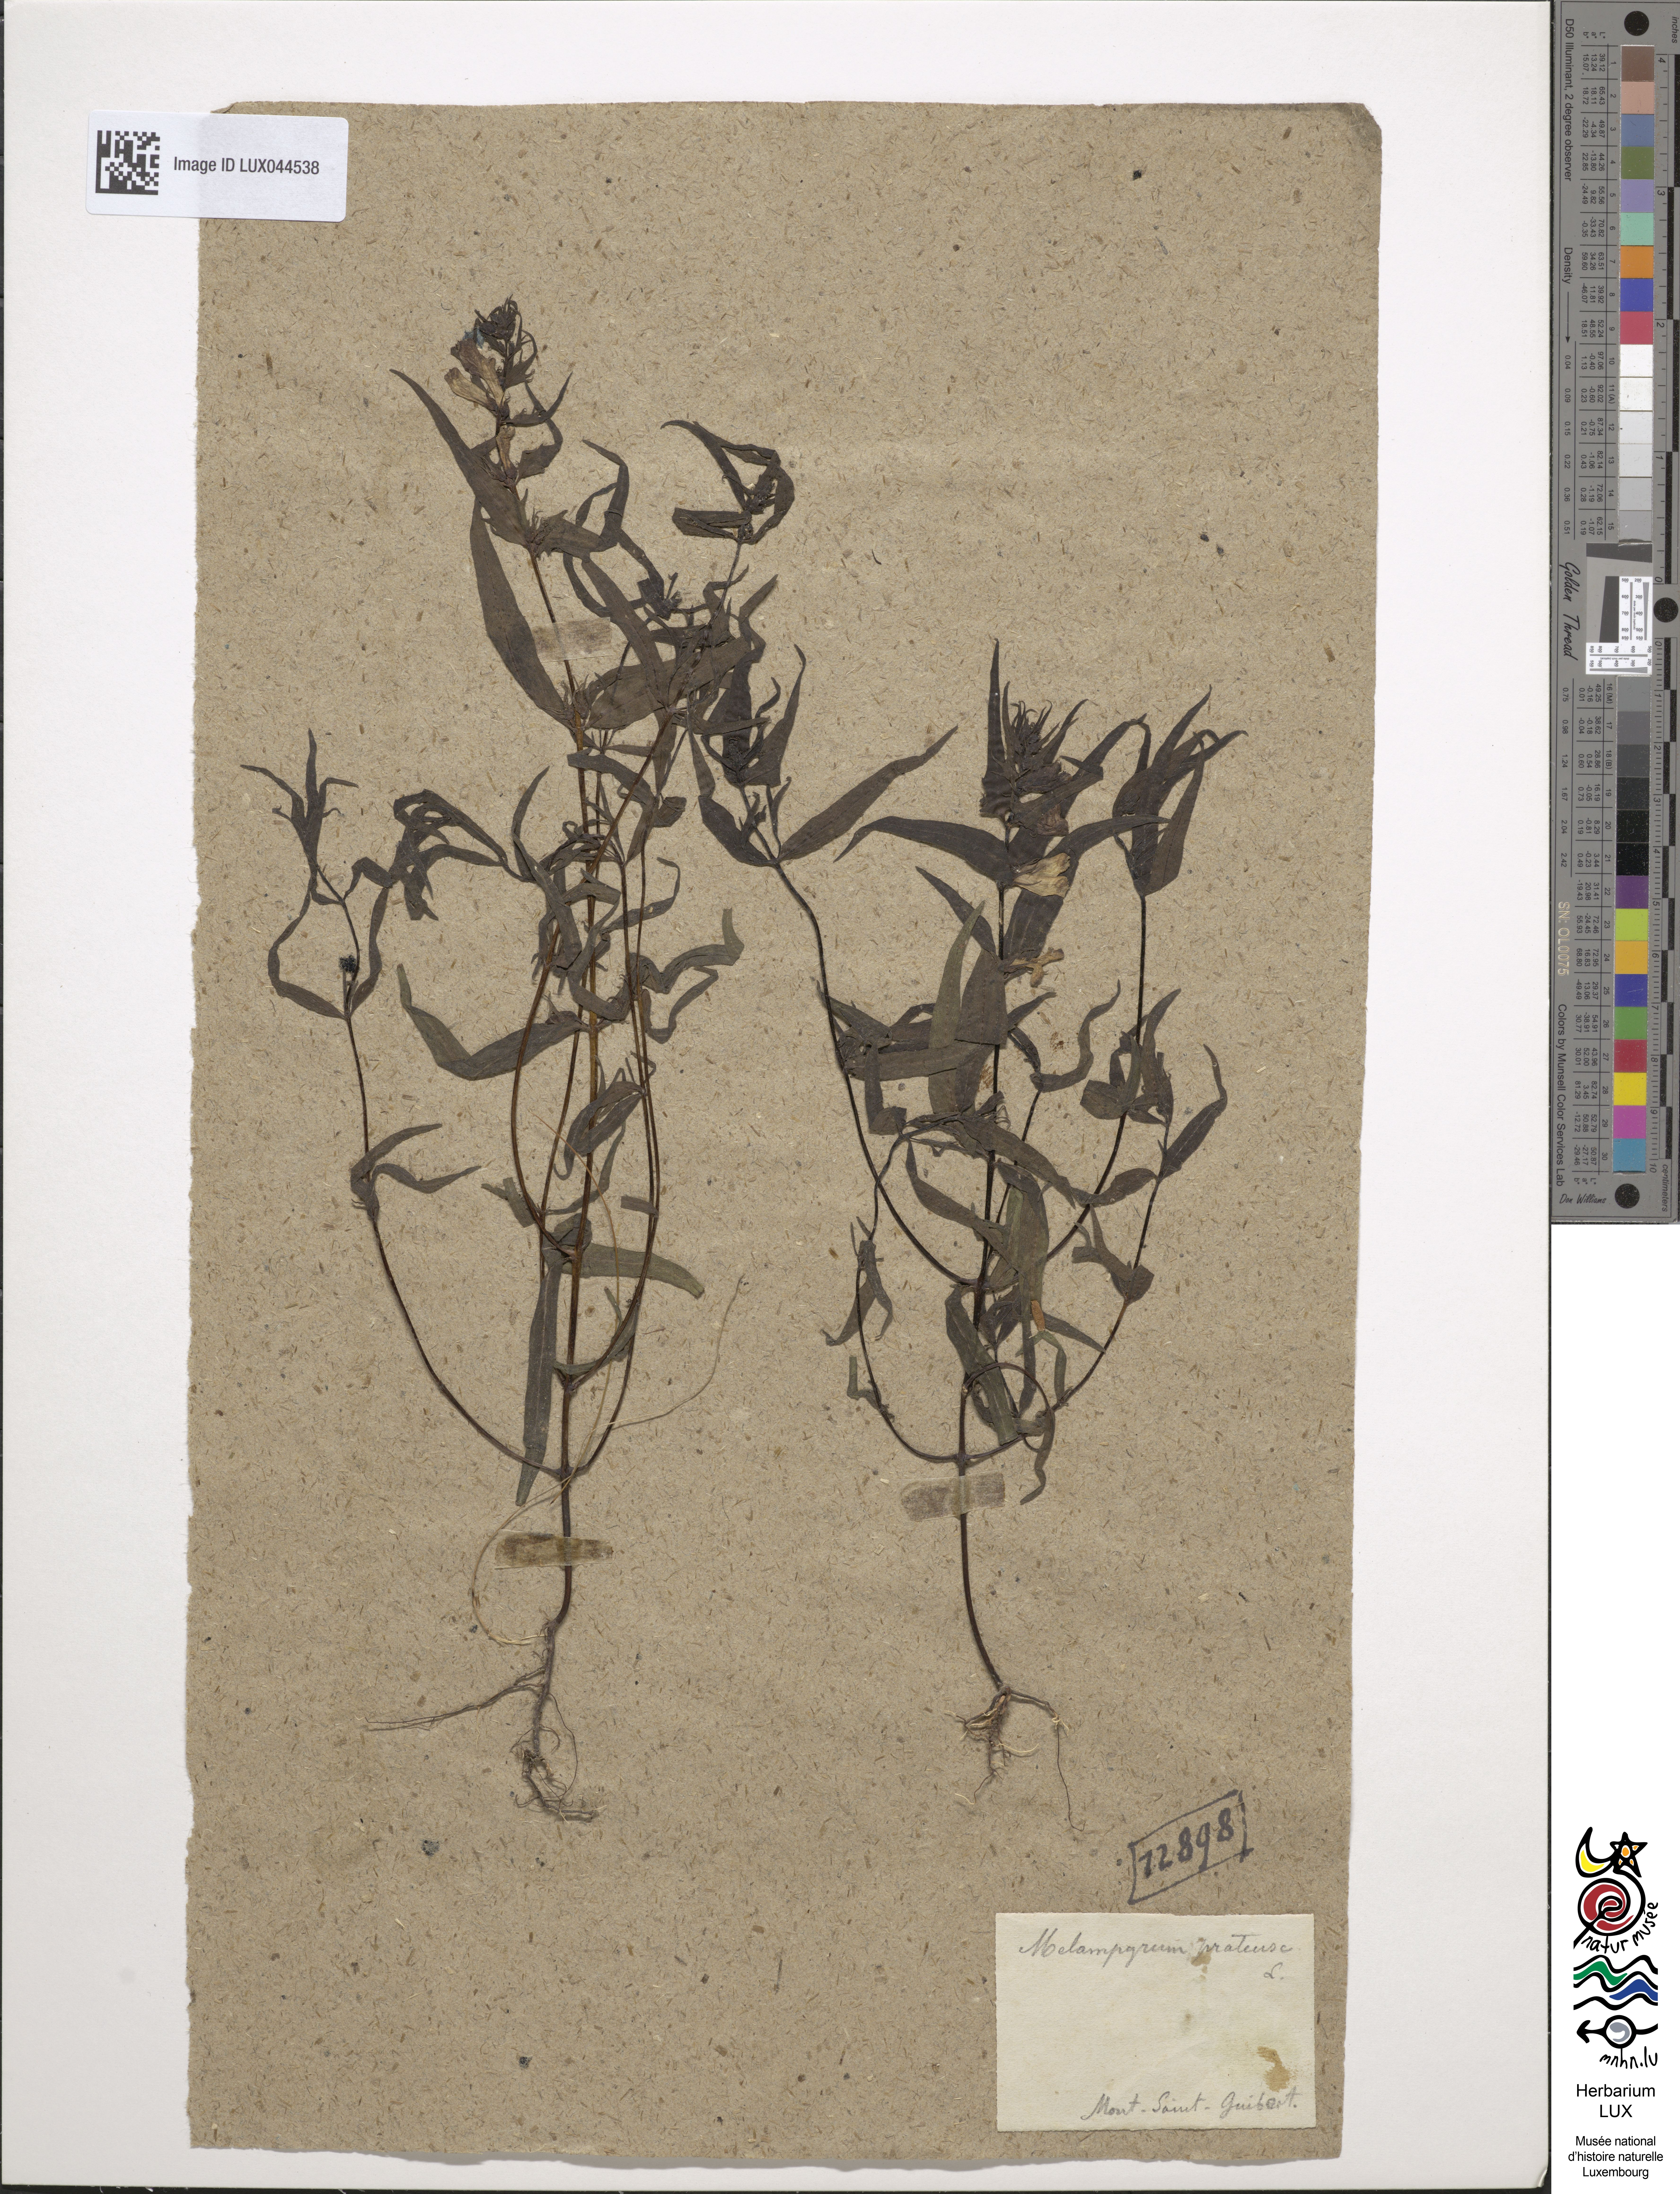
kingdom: Plantae
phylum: Tracheophyta
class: Magnoliopsida
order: Lamiales
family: Orobanchaceae
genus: Melampyrum
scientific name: Melampyrum pratense
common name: Common cow-wheat
